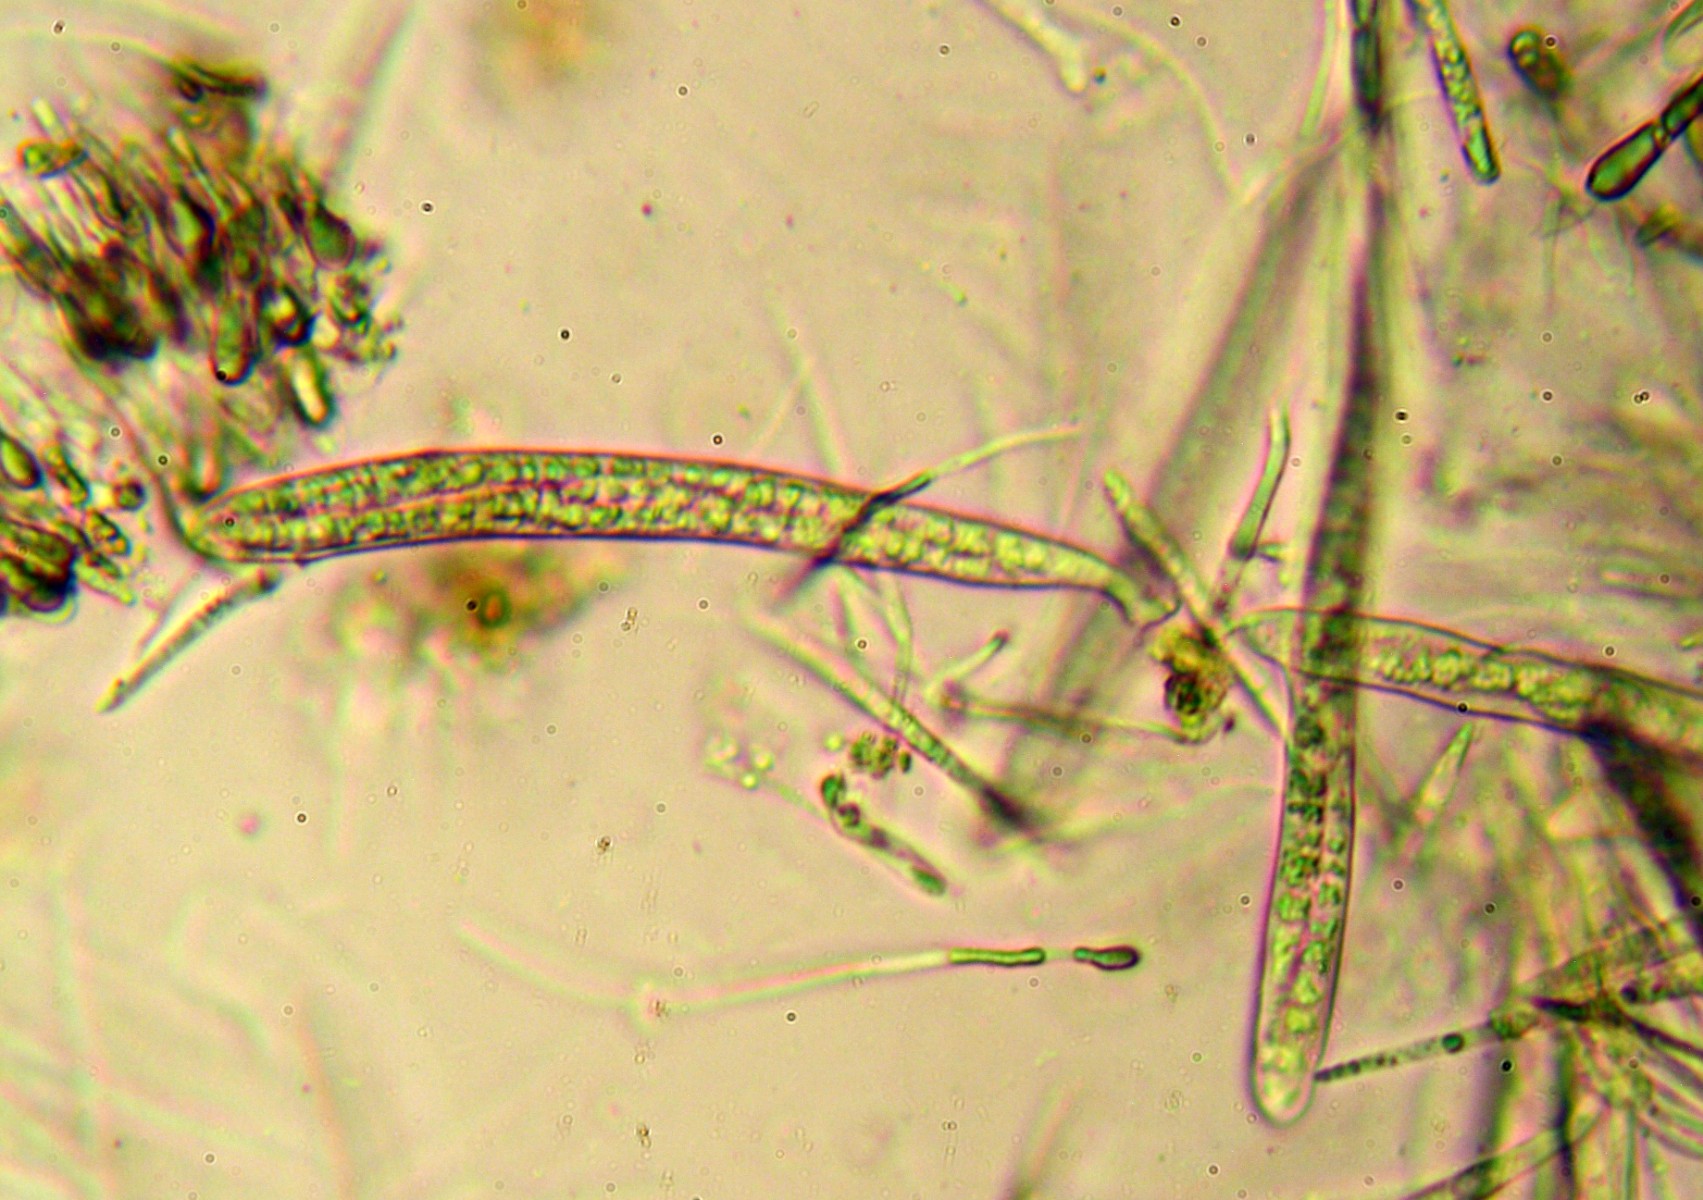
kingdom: Fungi
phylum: Ascomycota
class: Leotiomycetes
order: Helotiales
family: Ploettnerulaceae
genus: Belonium
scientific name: Belonium excelsior
